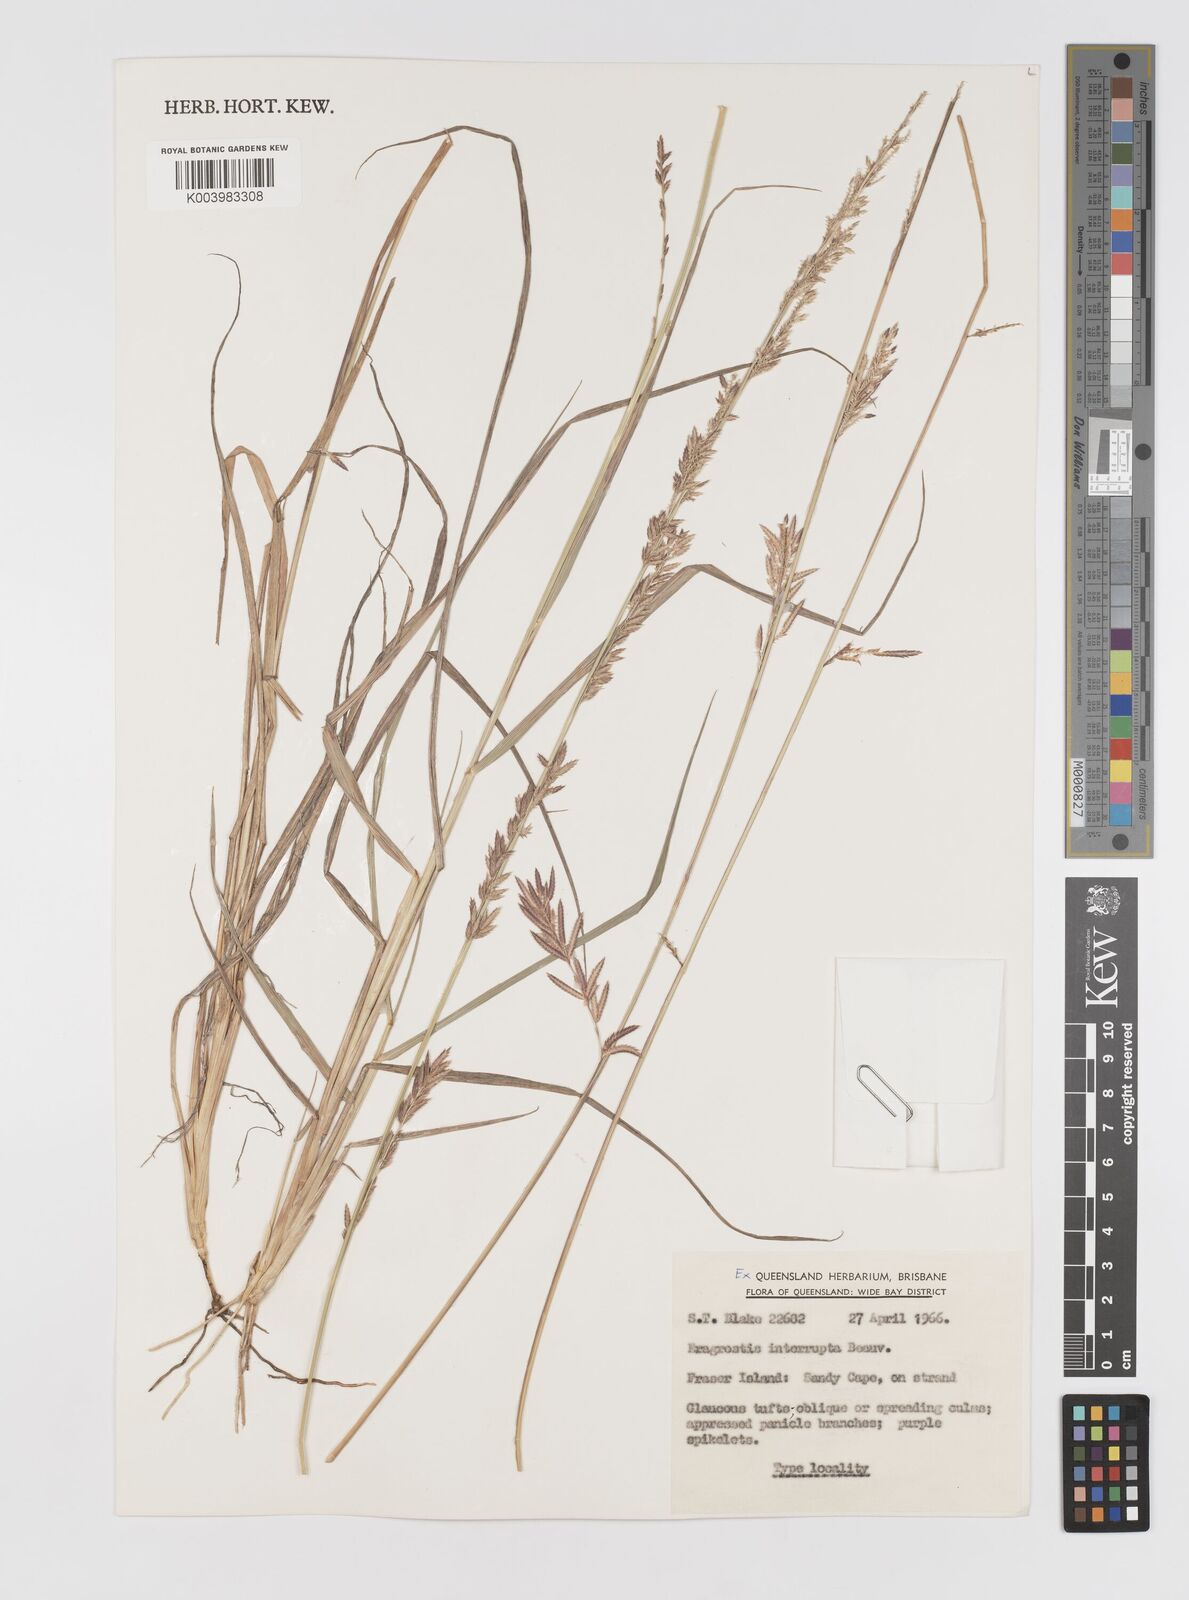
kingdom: Plantae
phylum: Tracheophyta
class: Liliopsida
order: Poales
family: Poaceae
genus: Eragrostis
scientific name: Eragrostis interrupta
